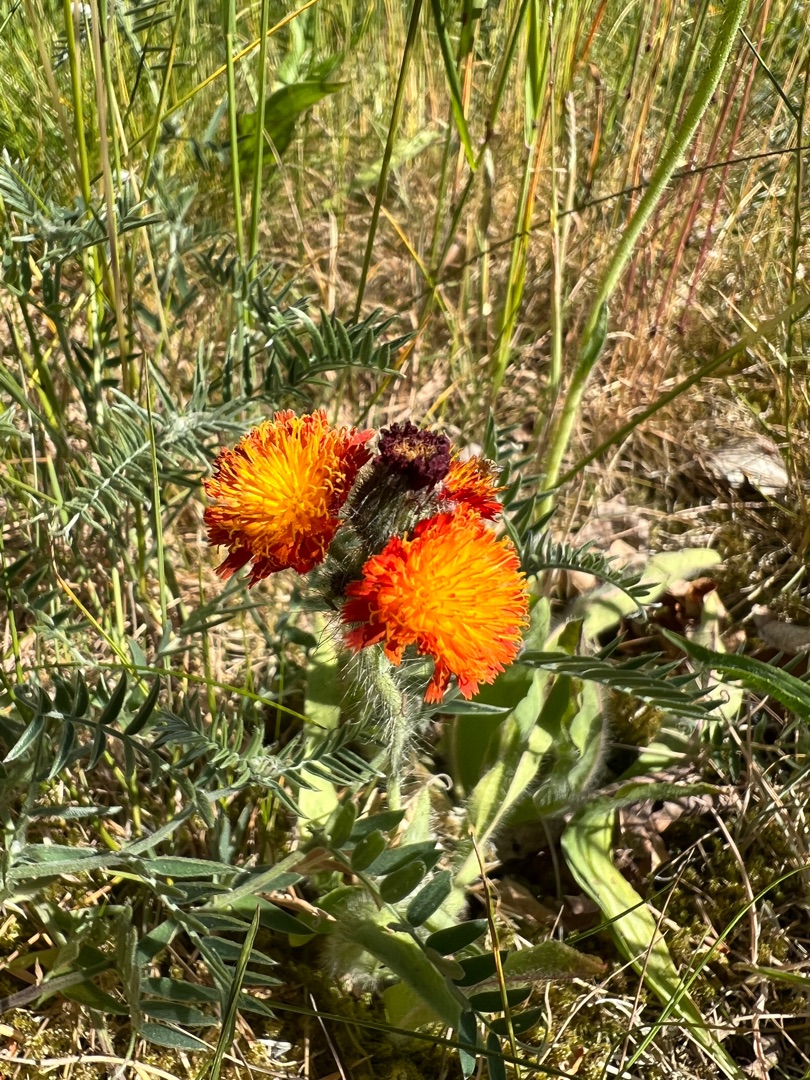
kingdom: Plantae
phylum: Tracheophyta
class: Magnoliopsida
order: Asterales
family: Asteraceae
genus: Pilosella
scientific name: Pilosella aurantiaca
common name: Pomerans-høgeurt
